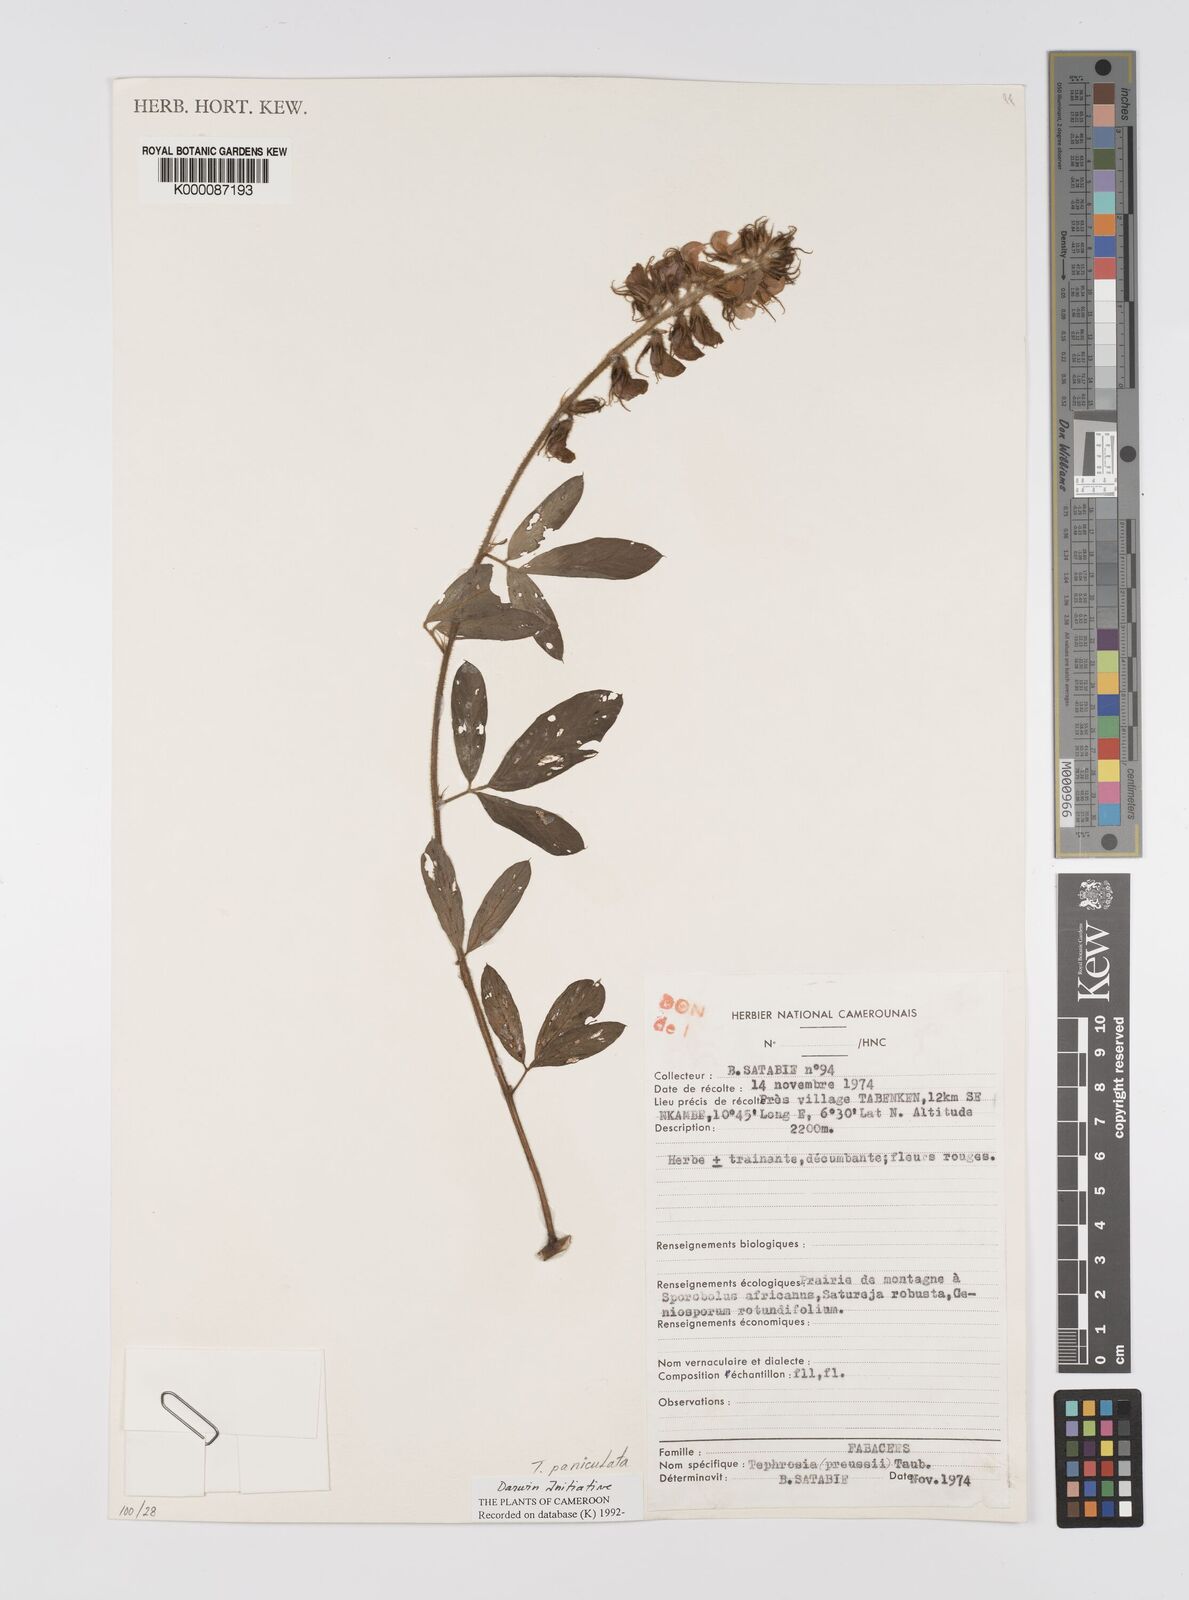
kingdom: Plantae
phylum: Tracheophyta
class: Magnoliopsida
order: Fabales
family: Fabaceae
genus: Tephrosia
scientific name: Tephrosia paniculata
